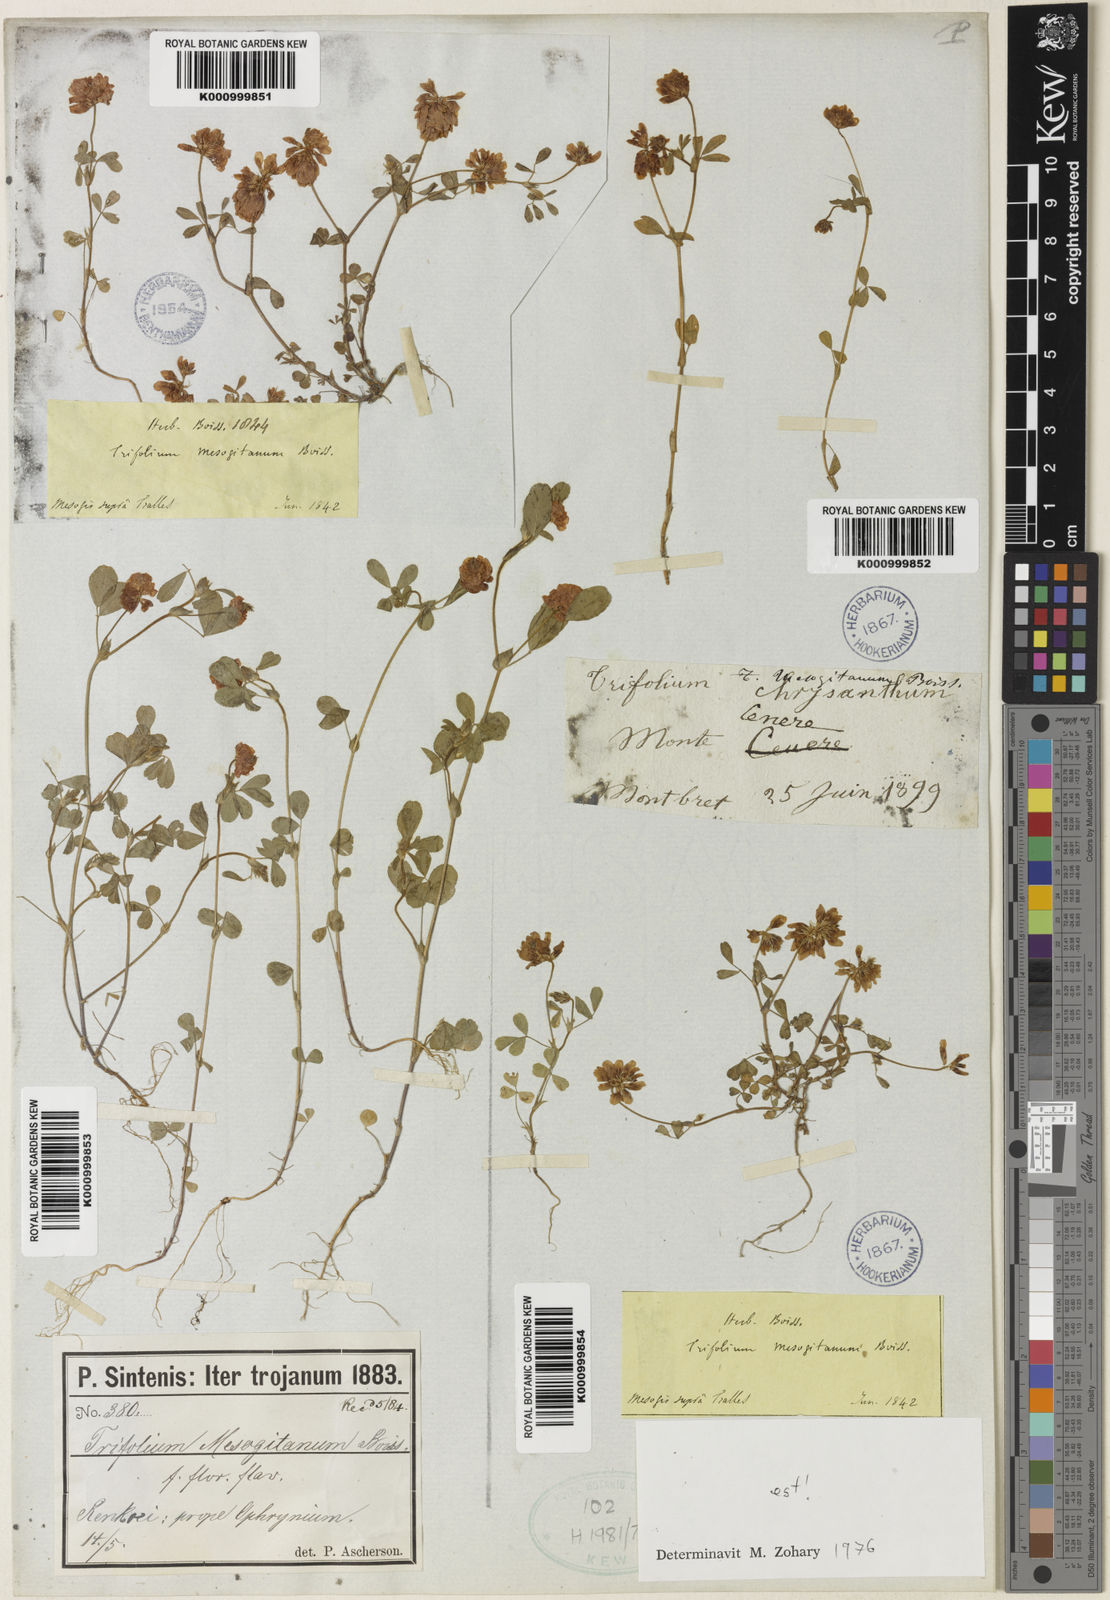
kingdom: Plantae
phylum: Tracheophyta
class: Magnoliopsida
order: Fabales
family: Fabaceae
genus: Trifolium
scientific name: Trifolium mesogitanum
